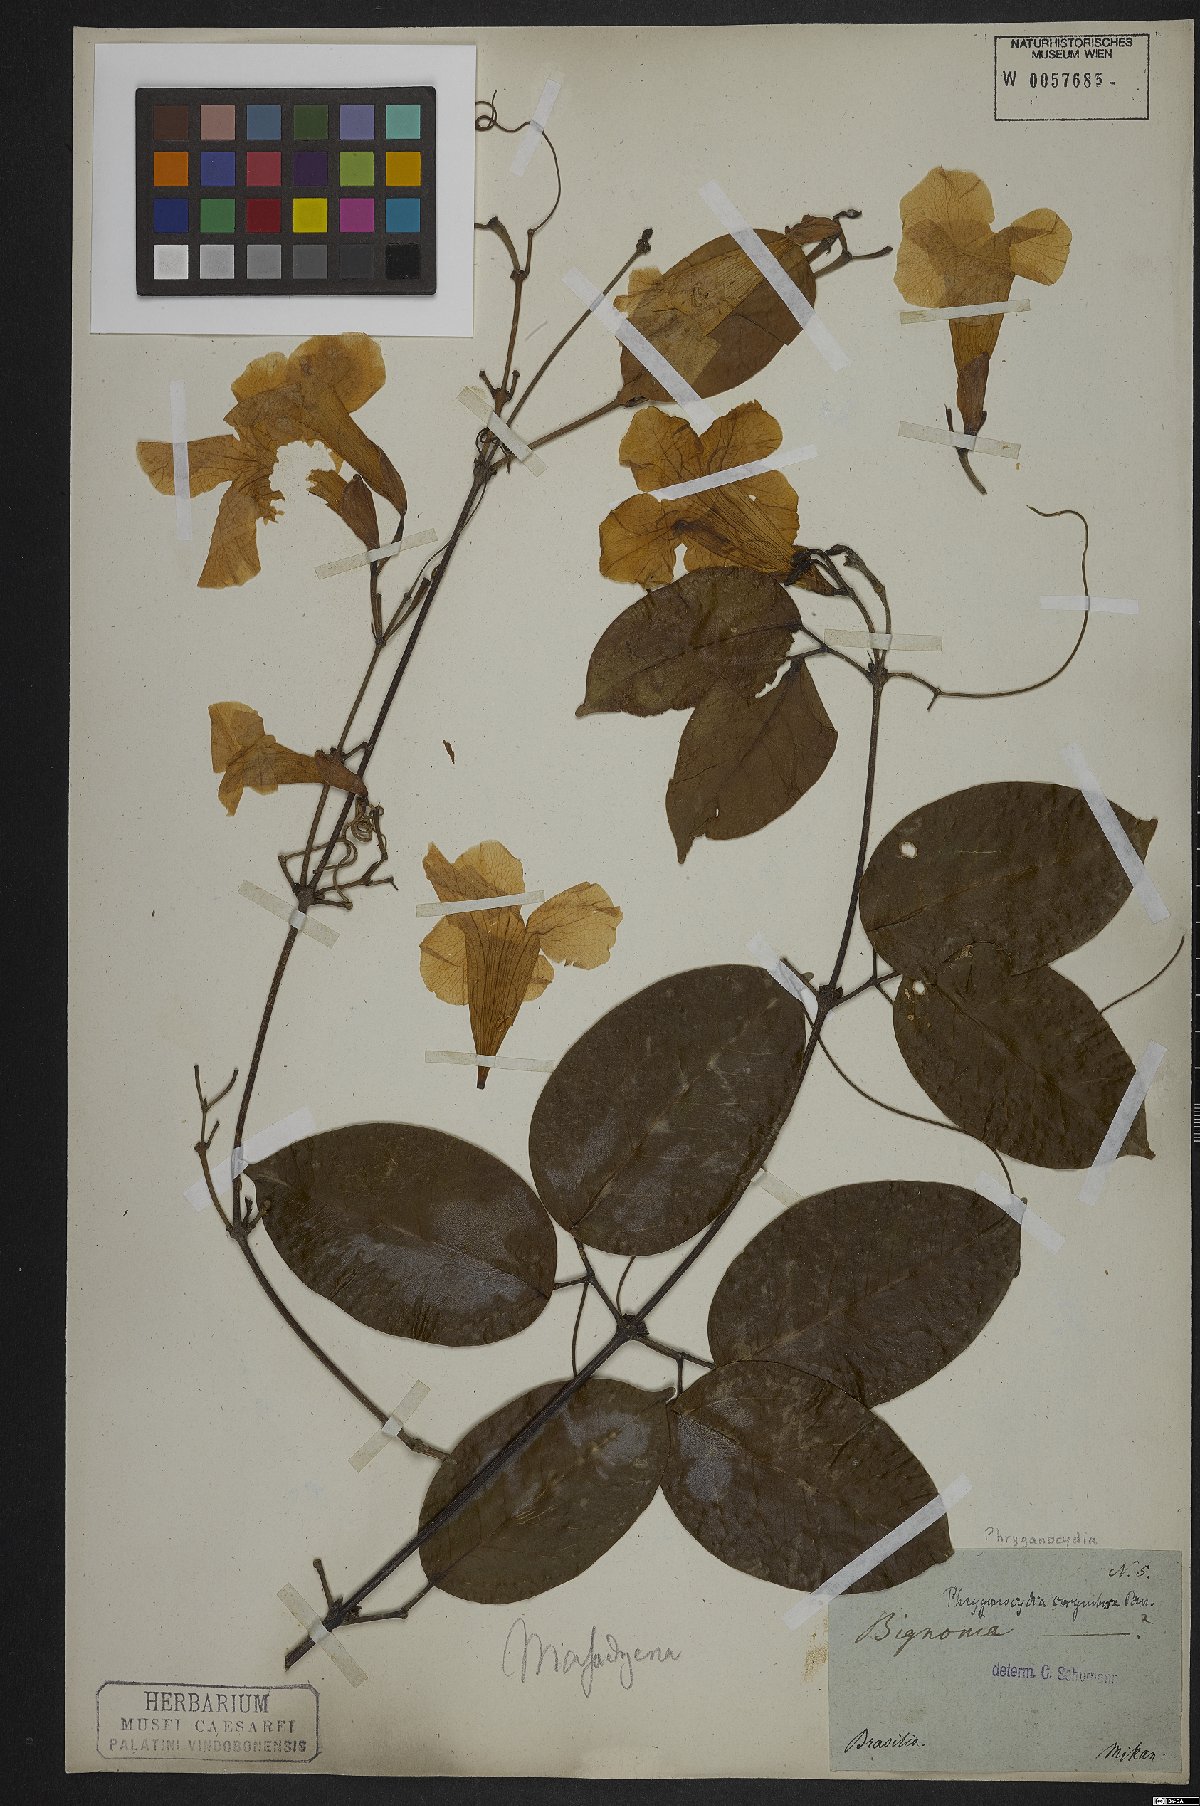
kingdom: Plantae
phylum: Tracheophyta
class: Magnoliopsida
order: Lamiales
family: Bignoniaceae
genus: Bignonia
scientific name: Bignonia corymbosa
